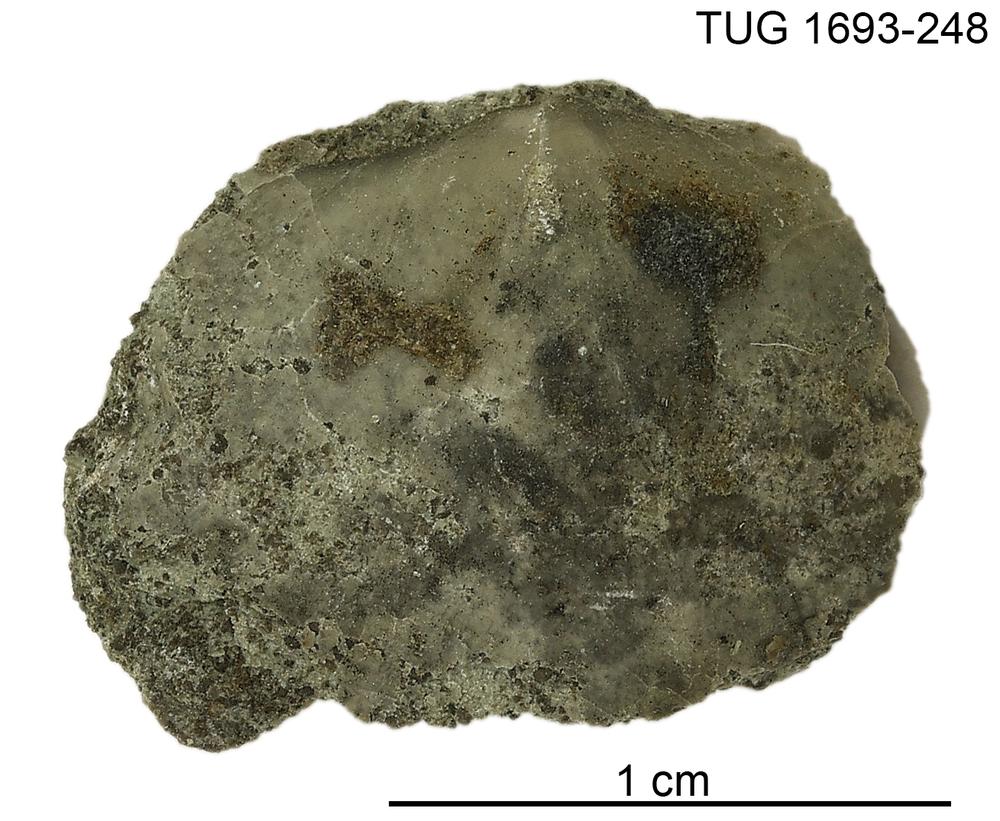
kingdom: Animalia
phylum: Brachiopoda
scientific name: Brachiopoda
